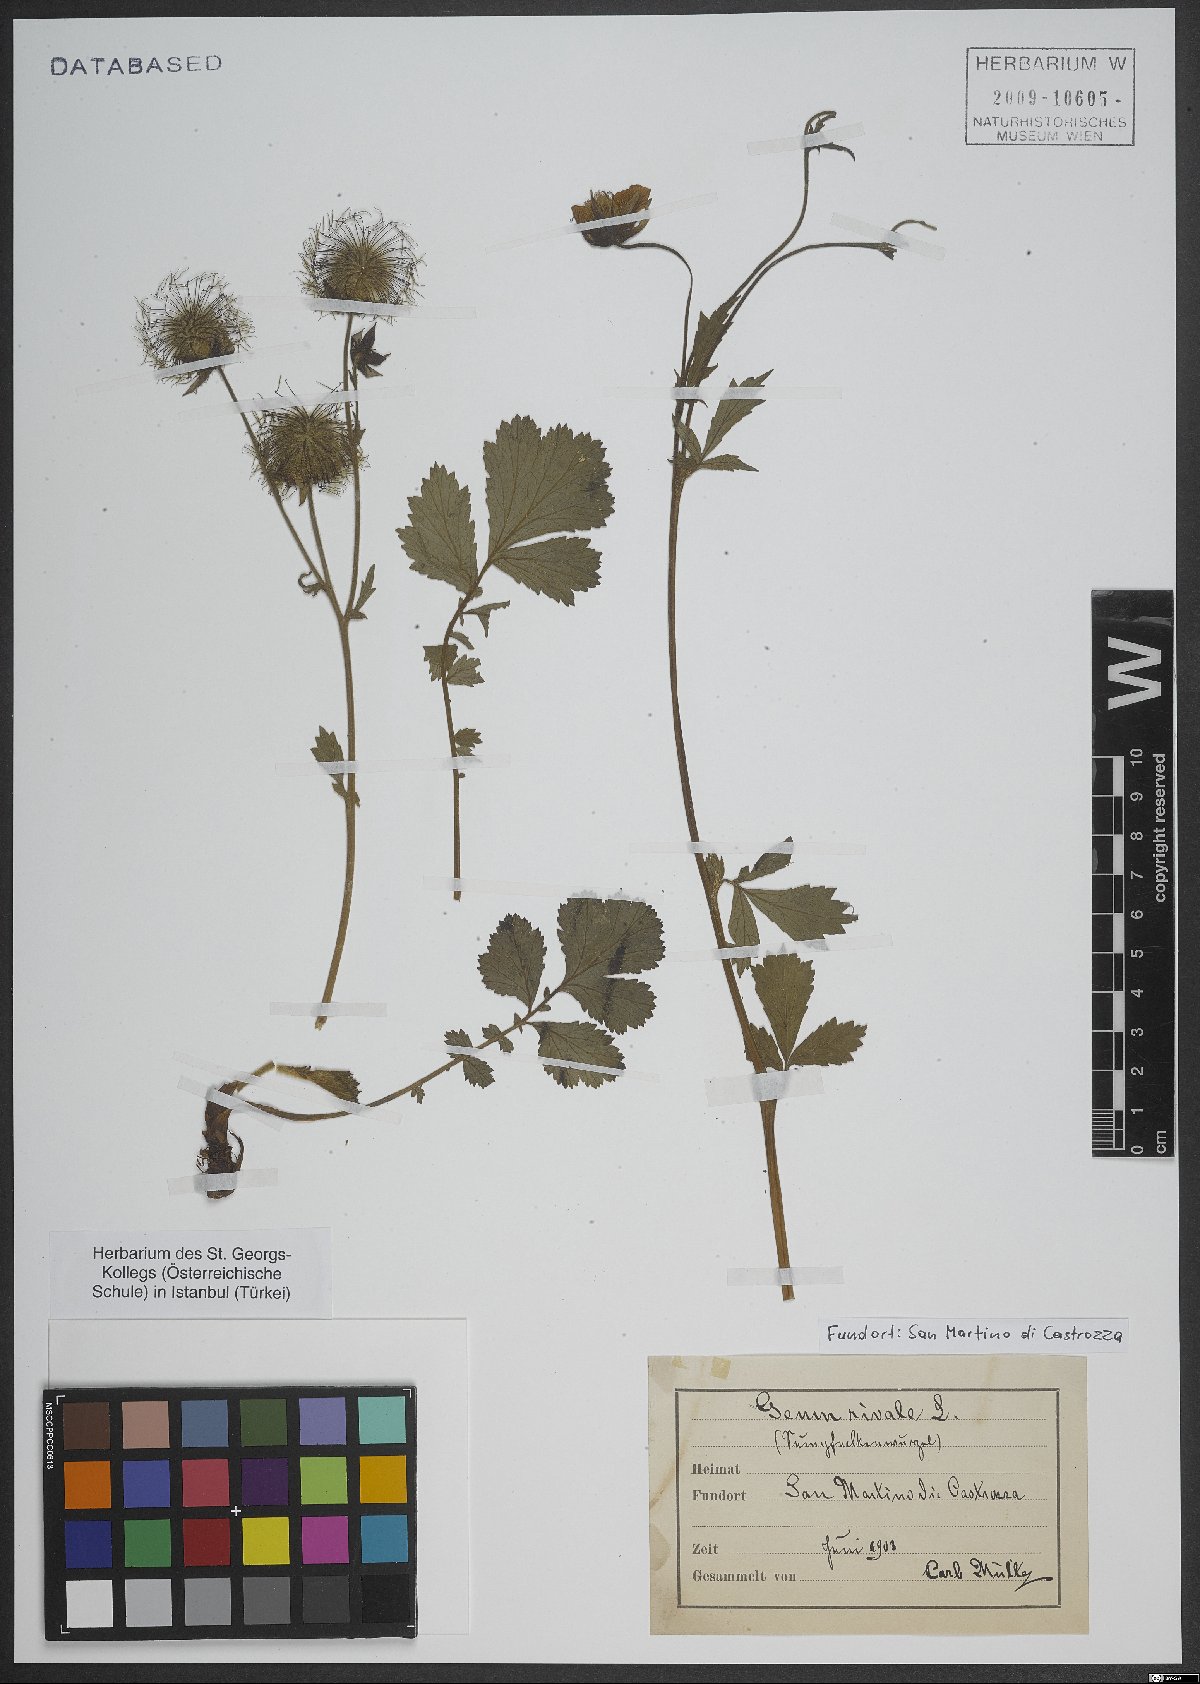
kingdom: Plantae
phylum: Tracheophyta
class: Magnoliopsida
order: Rosales
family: Rosaceae
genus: Geum
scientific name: Geum rivale
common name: Water avens
